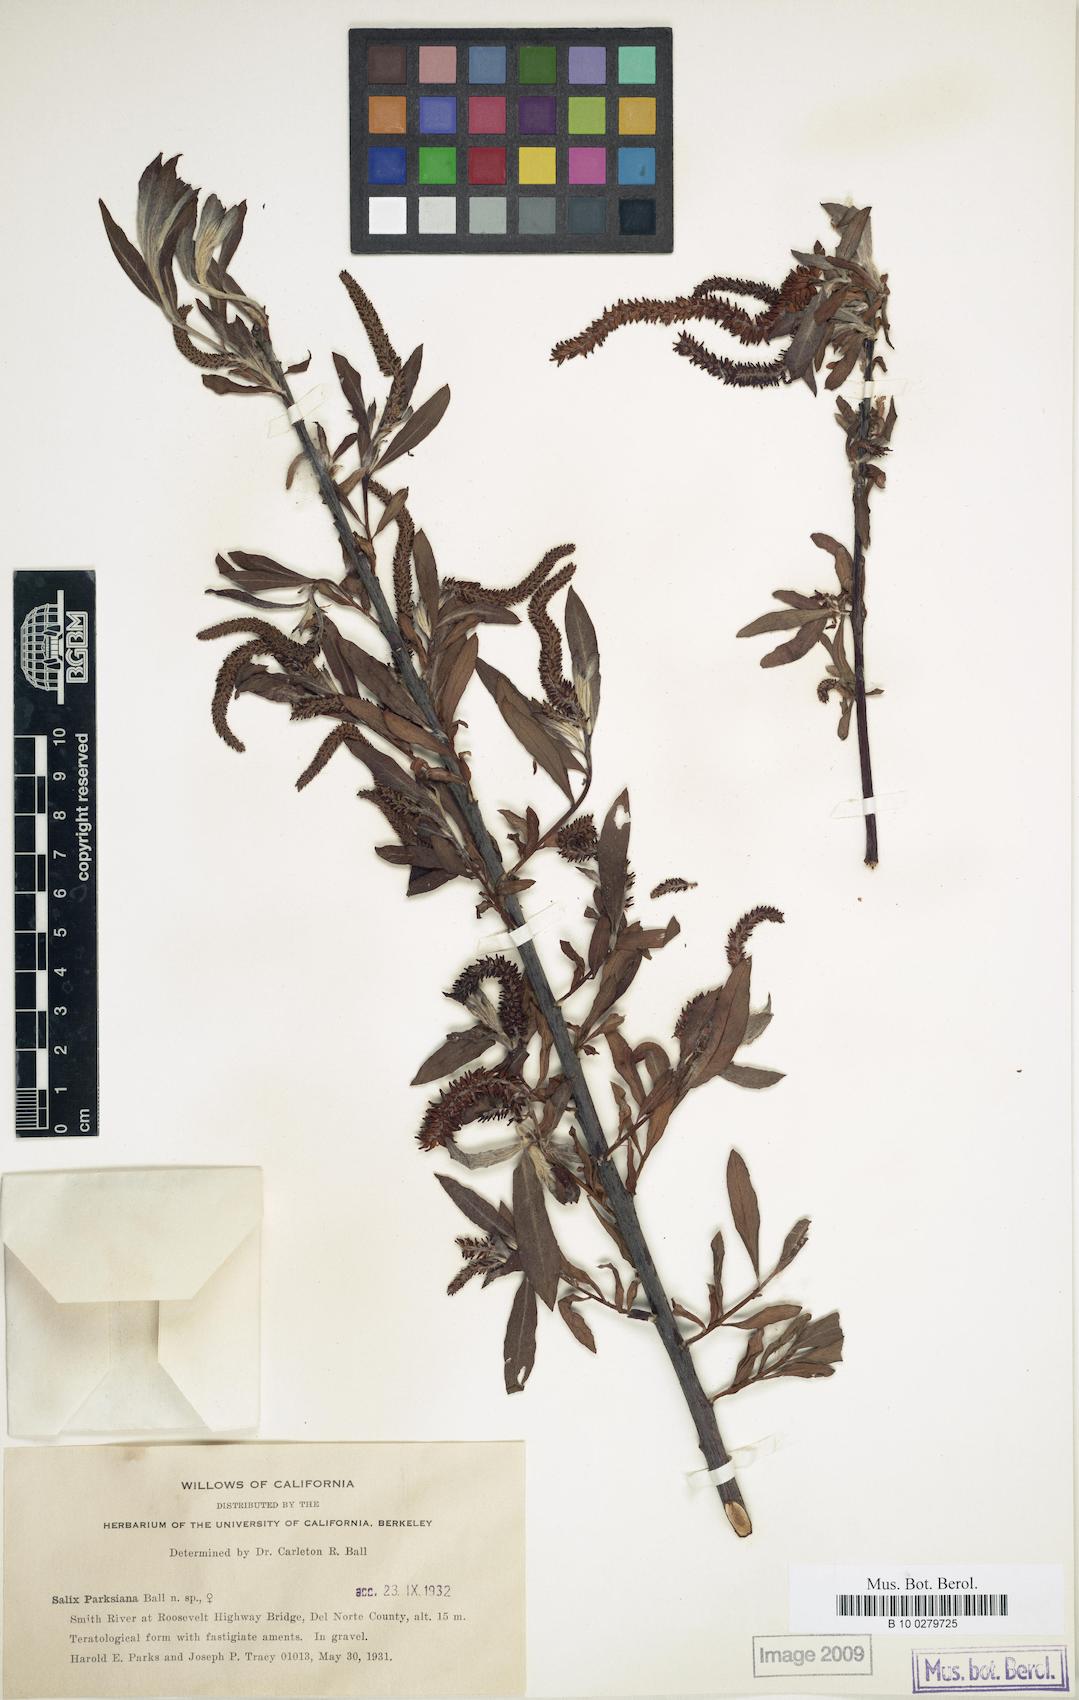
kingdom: Plantae
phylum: Tracheophyta
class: Magnoliopsida
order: Malpighiales
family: Salicaceae
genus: Salix
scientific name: Salix melanopsis
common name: Dusky willow
